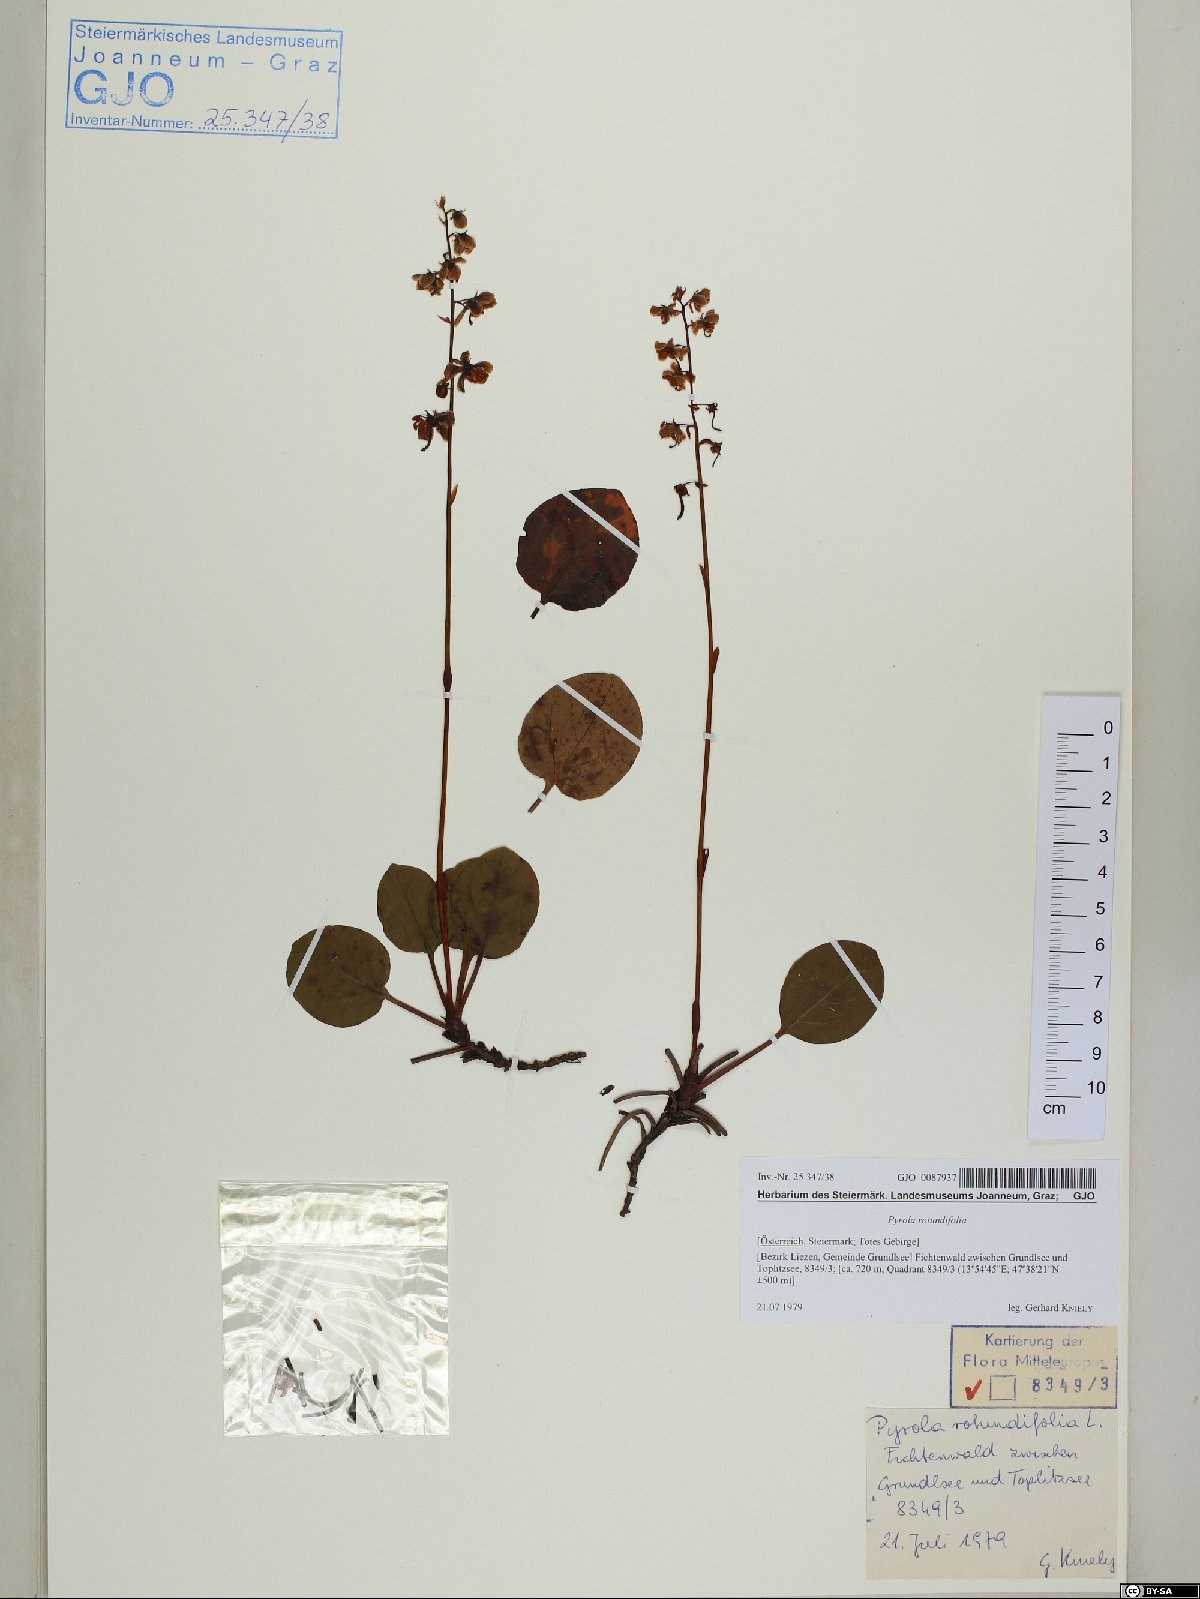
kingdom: Plantae
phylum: Tracheophyta
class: Magnoliopsida
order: Ericales
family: Ericaceae
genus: Pyrola
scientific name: Pyrola rotundifolia
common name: Round-leaved wintergreen
